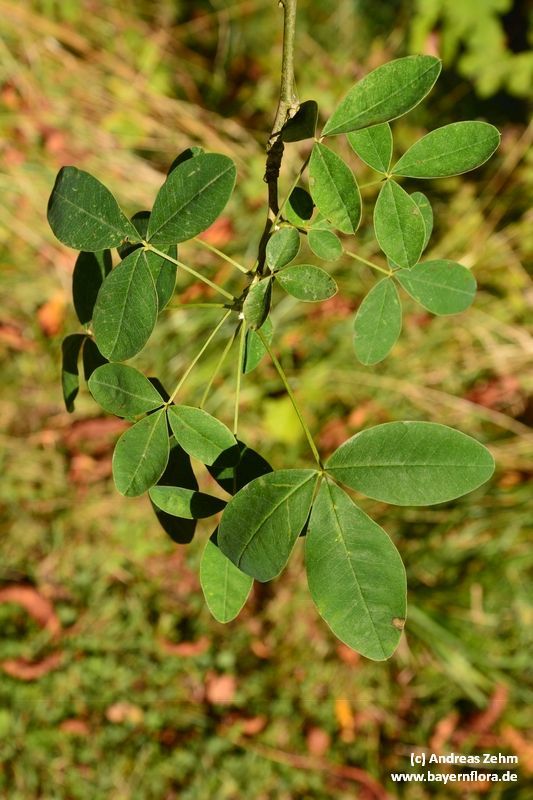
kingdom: Plantae
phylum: Tracheophyta
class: Magnoliopsida
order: Fabales
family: Fabaceae
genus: Laburnum
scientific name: Laburnum anagyroides
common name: Laburnum
